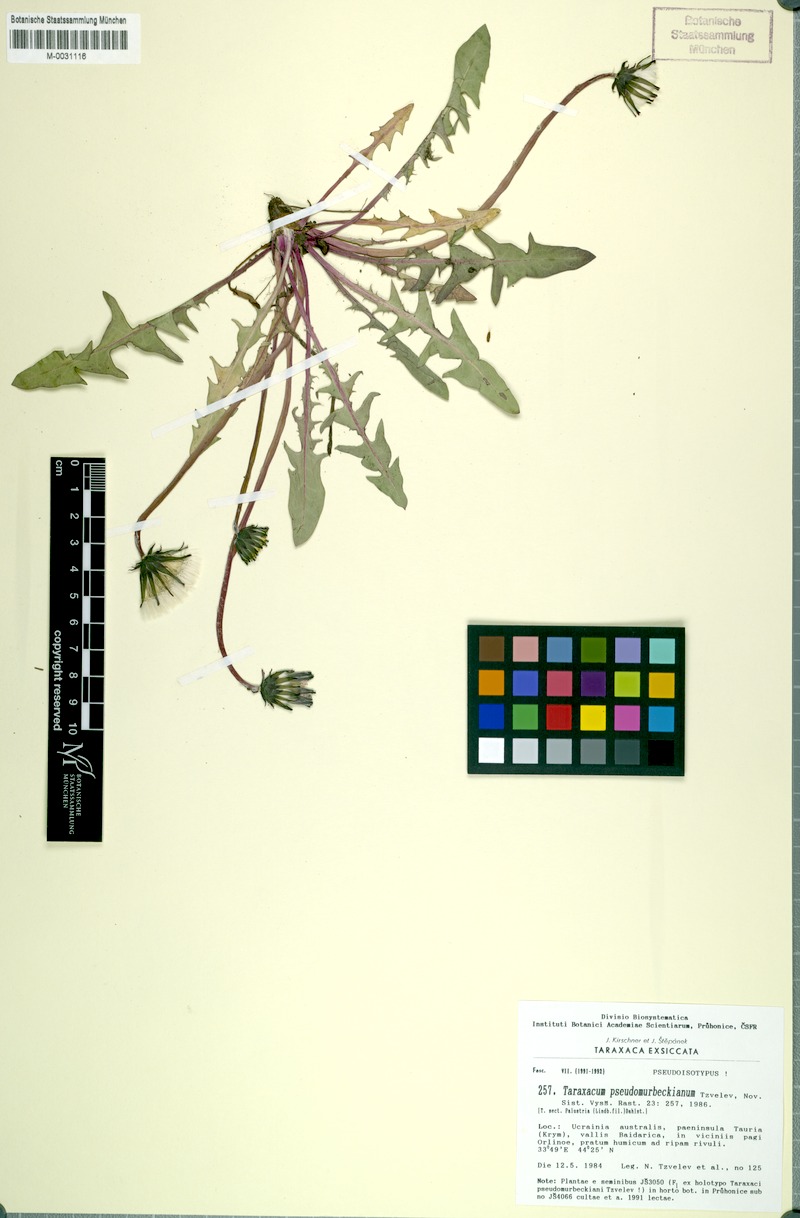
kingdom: Plantae
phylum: Tracheophyta
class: Magnoliopsida
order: Asterales
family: Asteraceae
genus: Taraxacum
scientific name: Taraxacum pseudomurbeckianum
